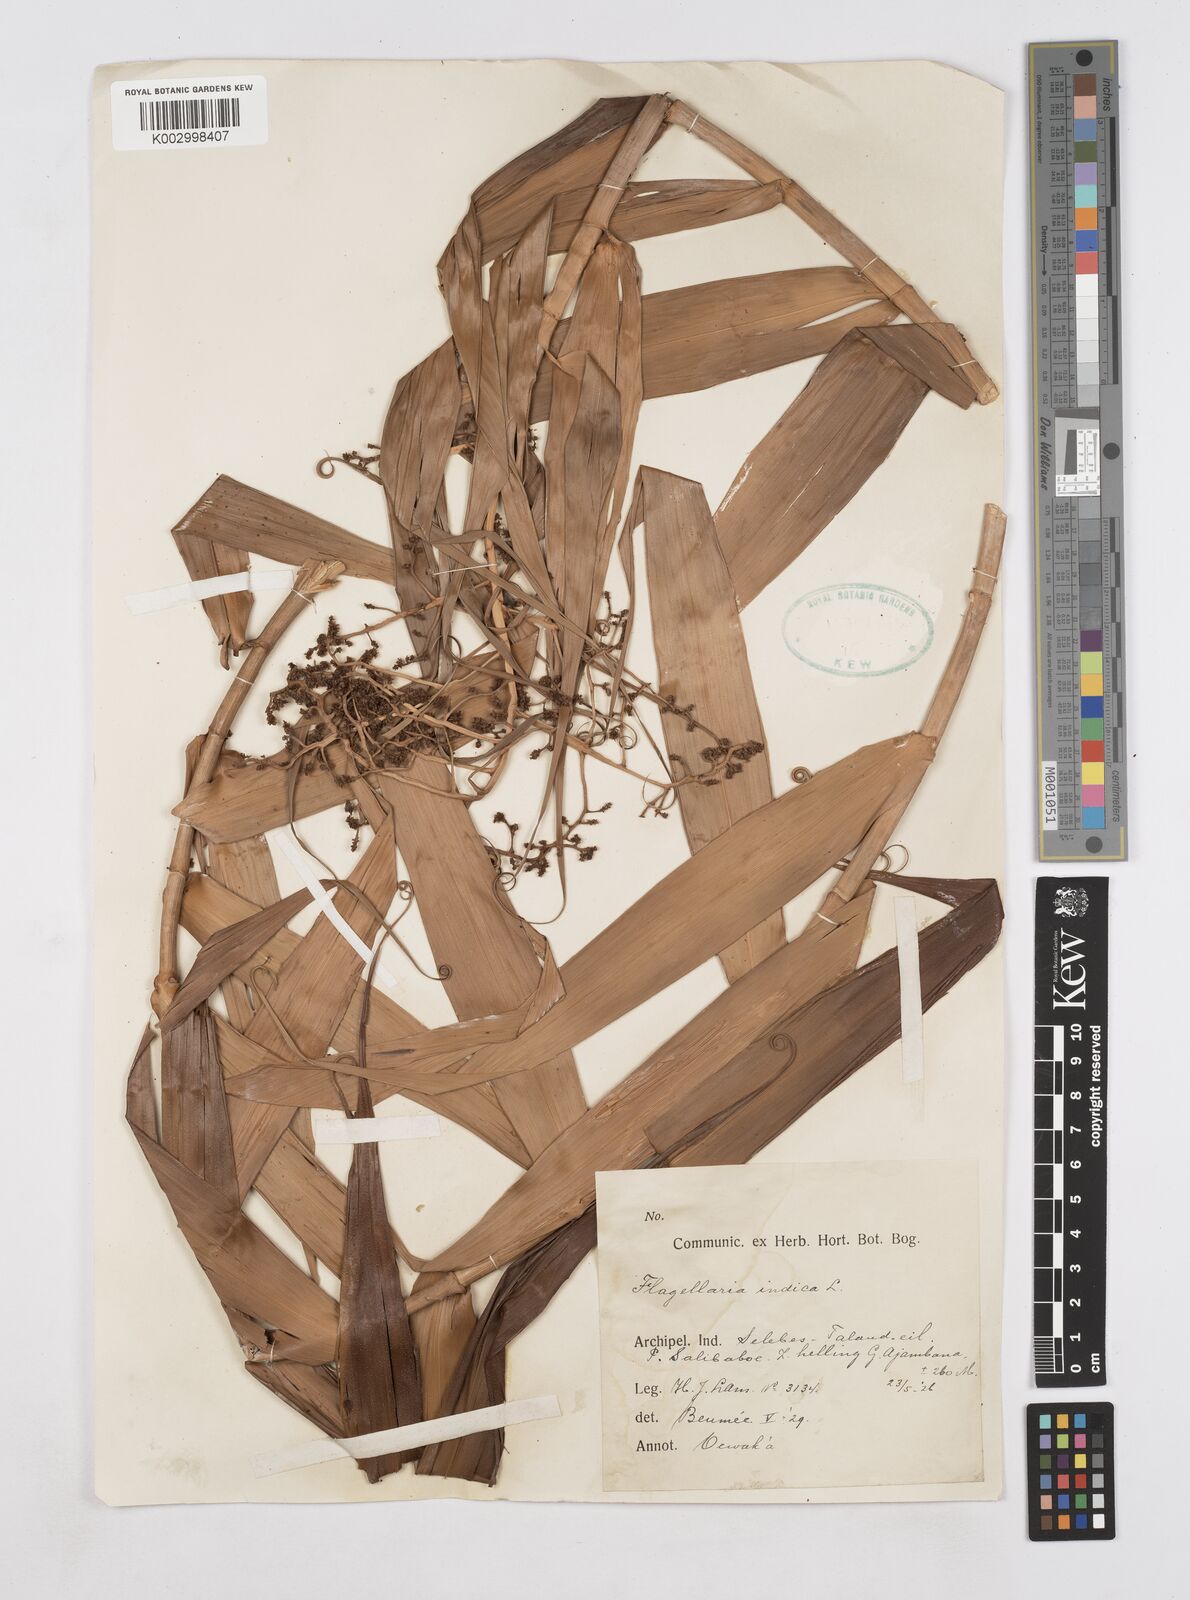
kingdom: Plantae
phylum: Tracheophyta
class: Liliopsida
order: Poales
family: Flagellariaceae
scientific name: Flagellariaceae
